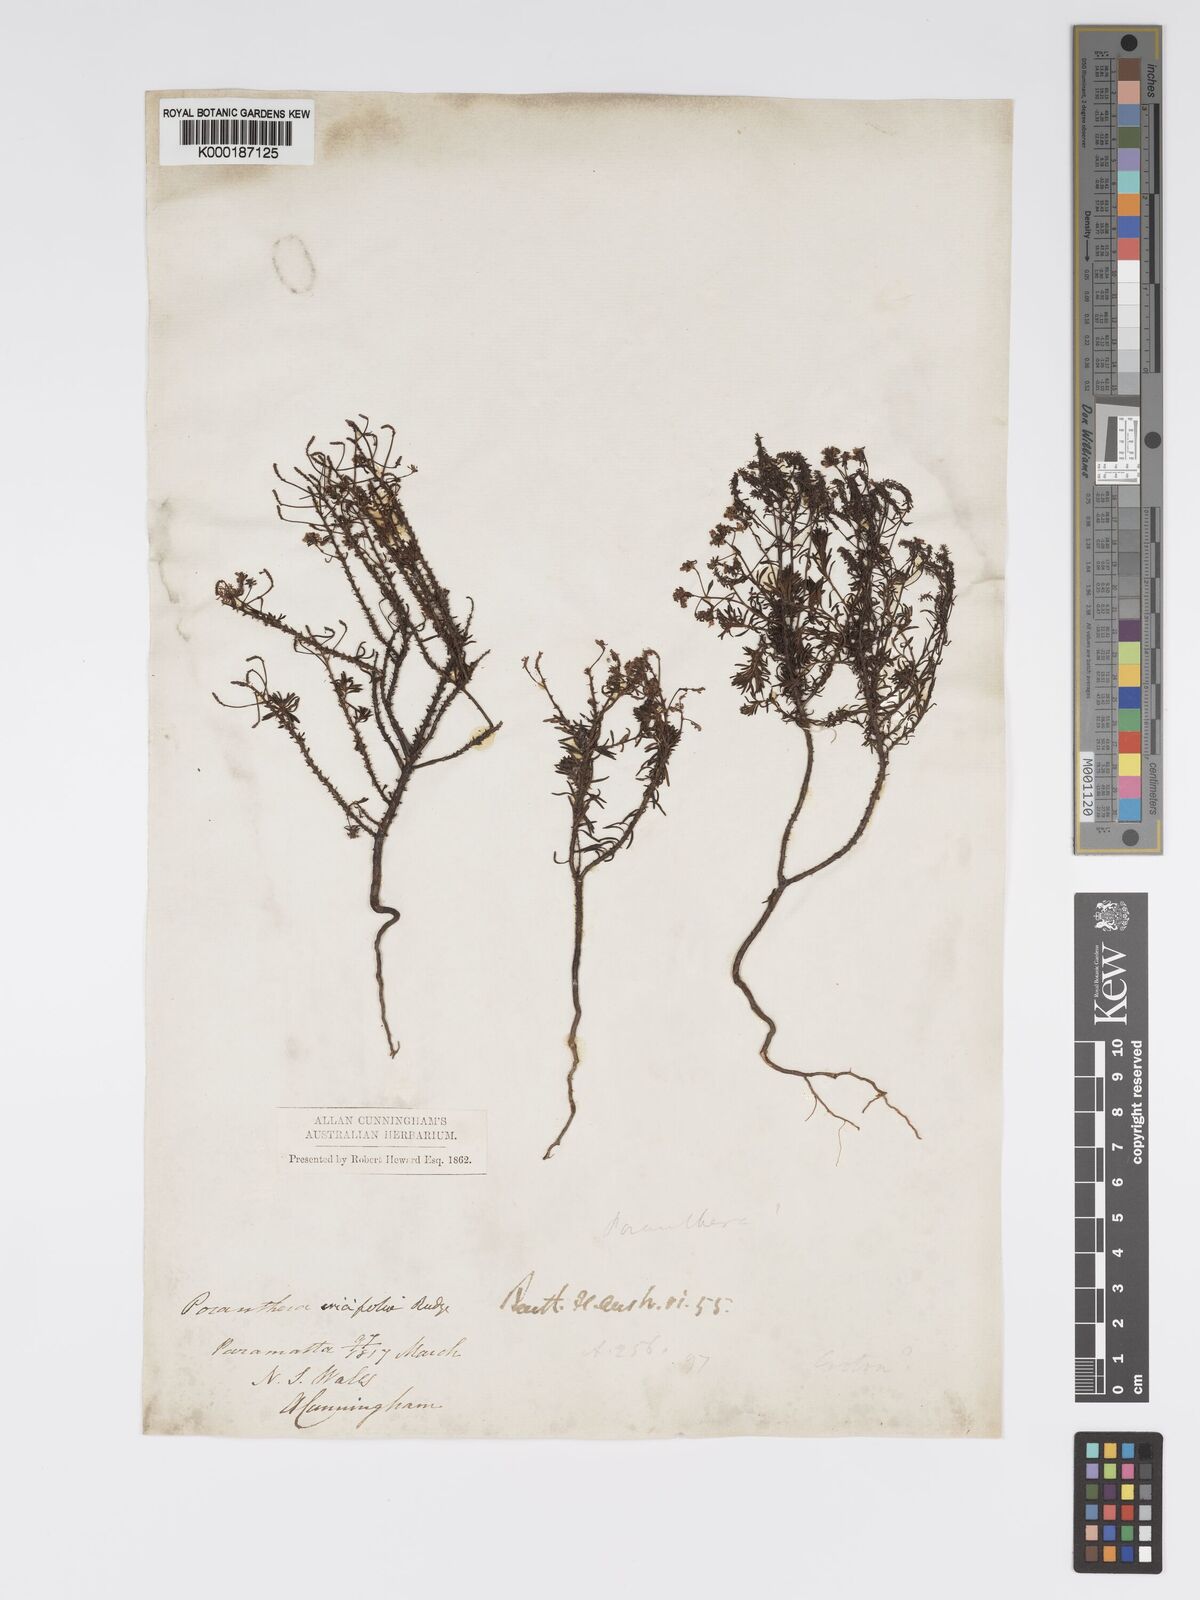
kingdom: Plantae
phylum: Tracheophyta
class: Magnoliopsida
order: Malpighiales
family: Phyllanthaceae
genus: Poranthera
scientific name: Poranthera ericifolia
